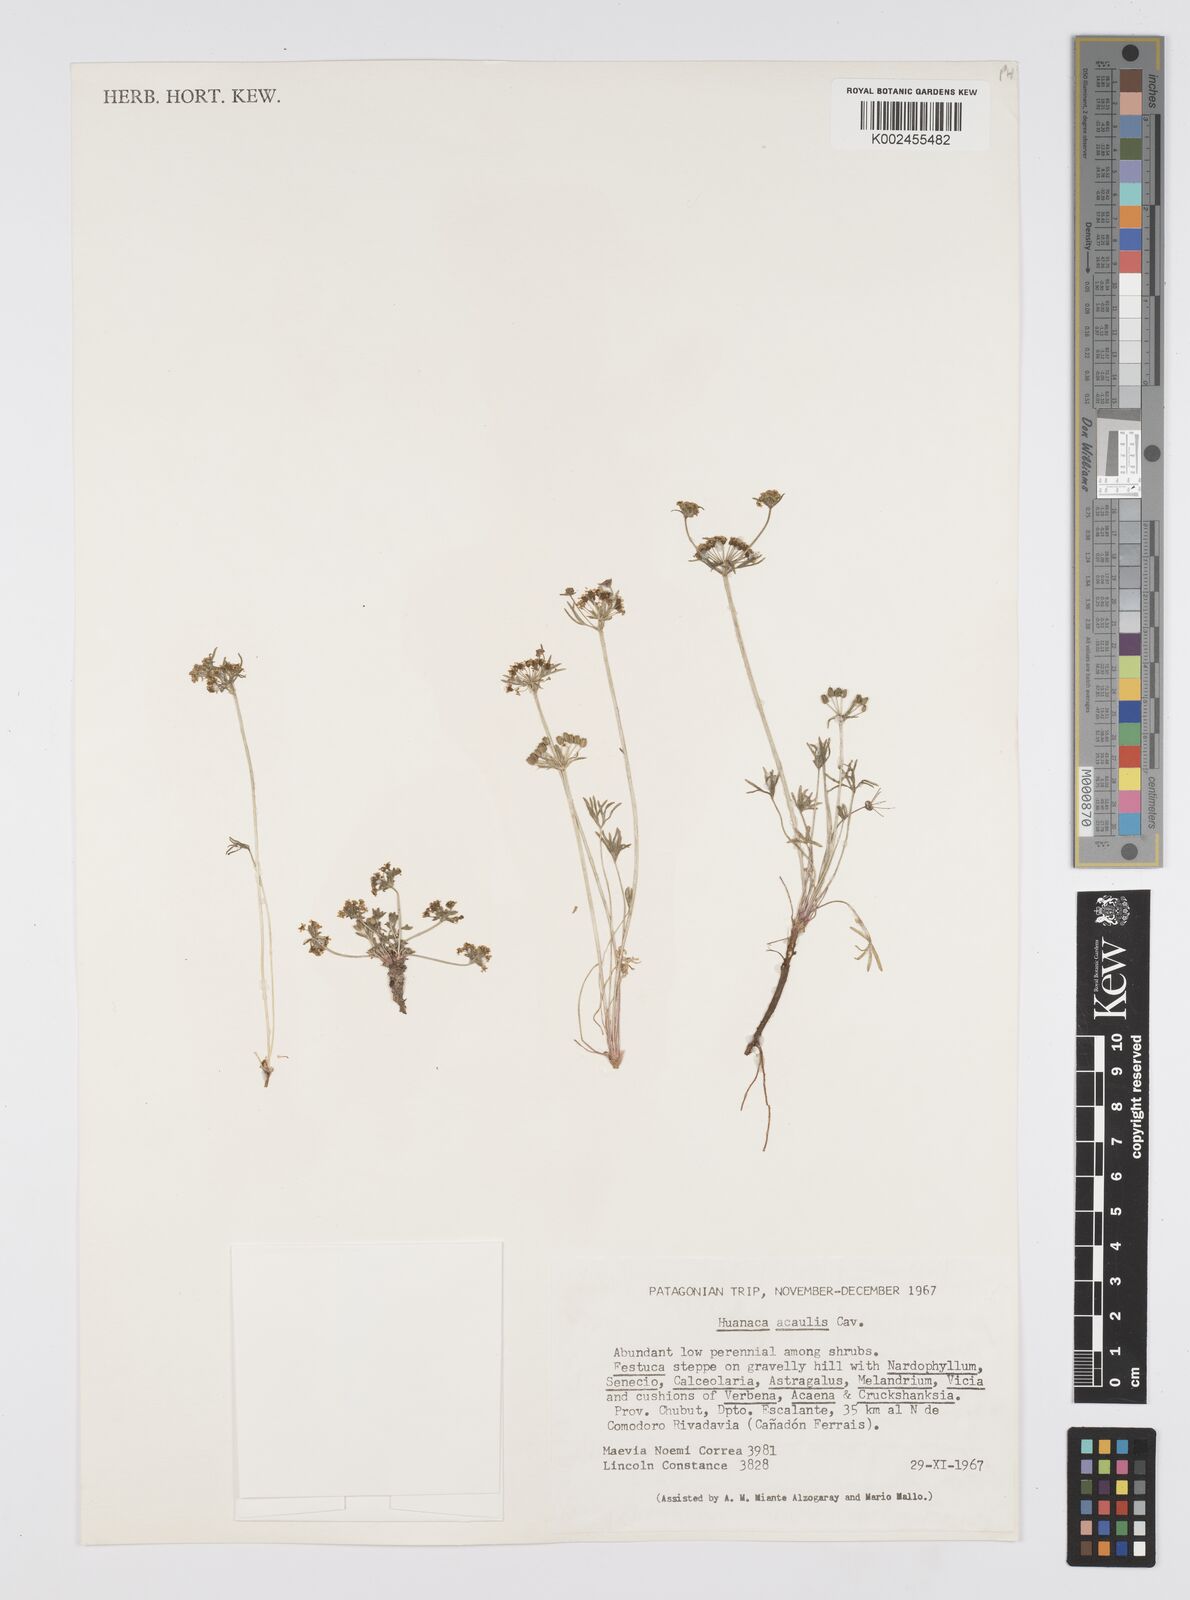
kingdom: Plantae
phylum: Tracheophyta
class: Magnoliopsida
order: Apiales
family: Apiaceae
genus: Azorella
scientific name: Azorella acaulis
